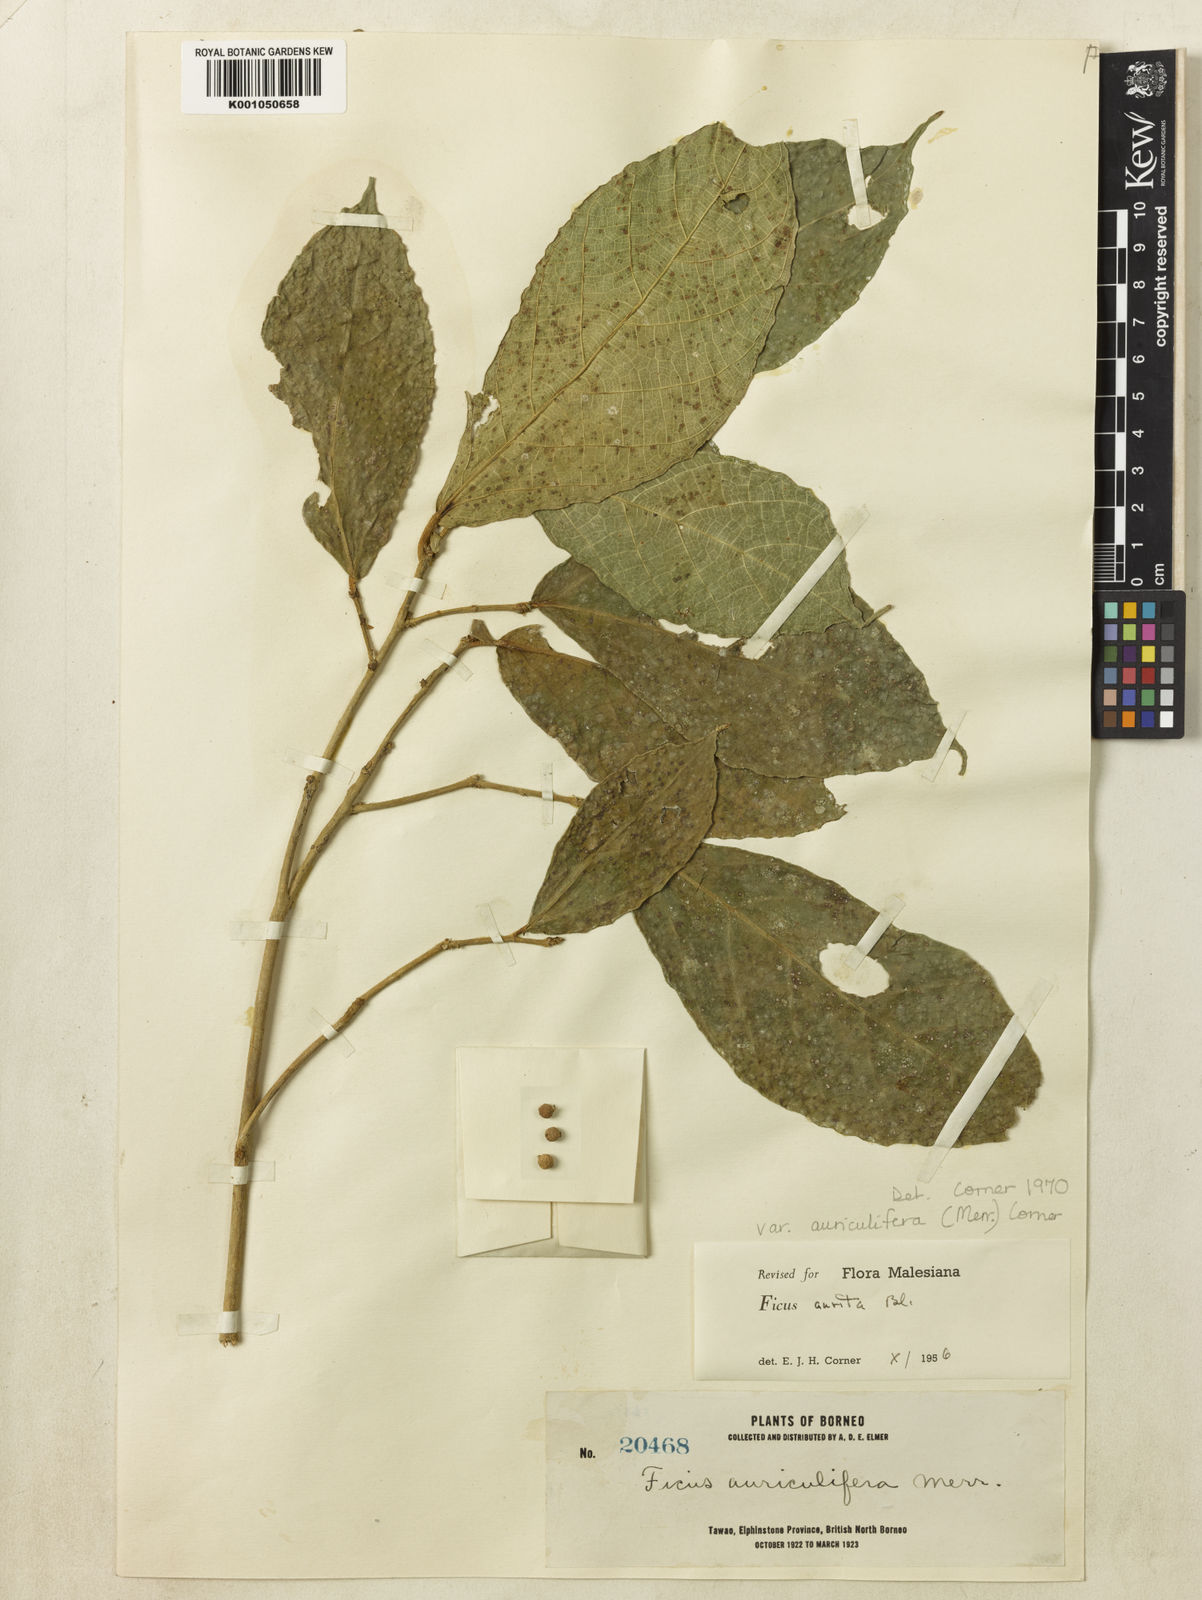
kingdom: Plantae
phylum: Tracheophyta
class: Magnoliopsida
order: Rosales
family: Moraceae
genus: Ficus
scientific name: Ficus aurita
